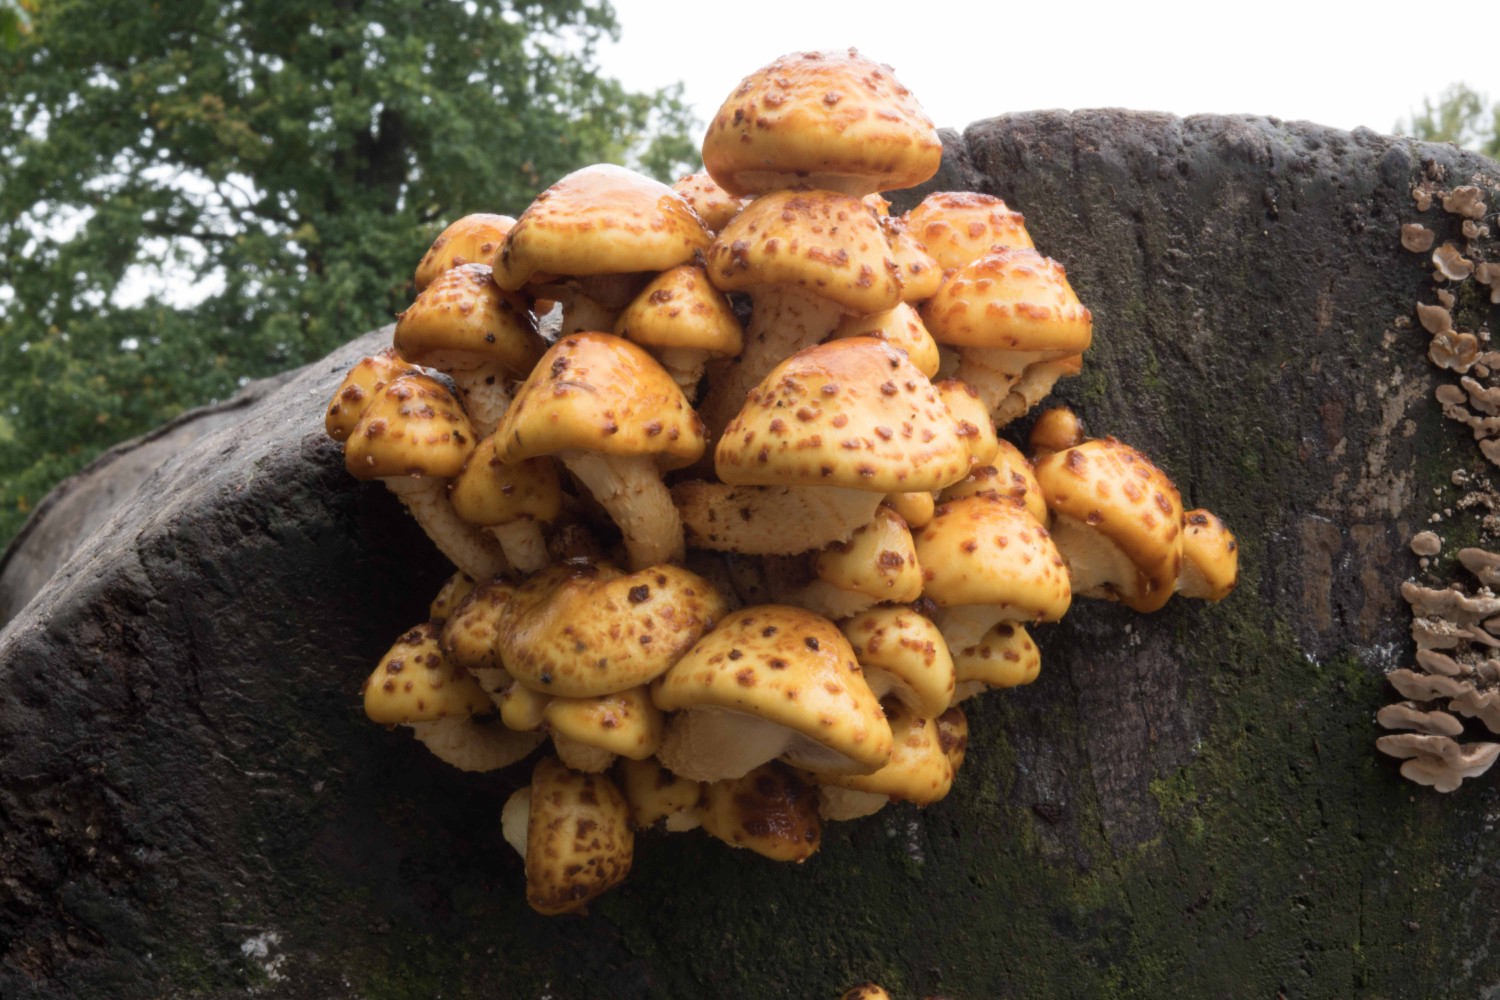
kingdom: Fungi
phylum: Basidiomycota
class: Agaricomycetes
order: Agaricales
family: Strophariaceae
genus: Pholiota
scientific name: Pholiota adiposa
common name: højtsiddende skælhat
